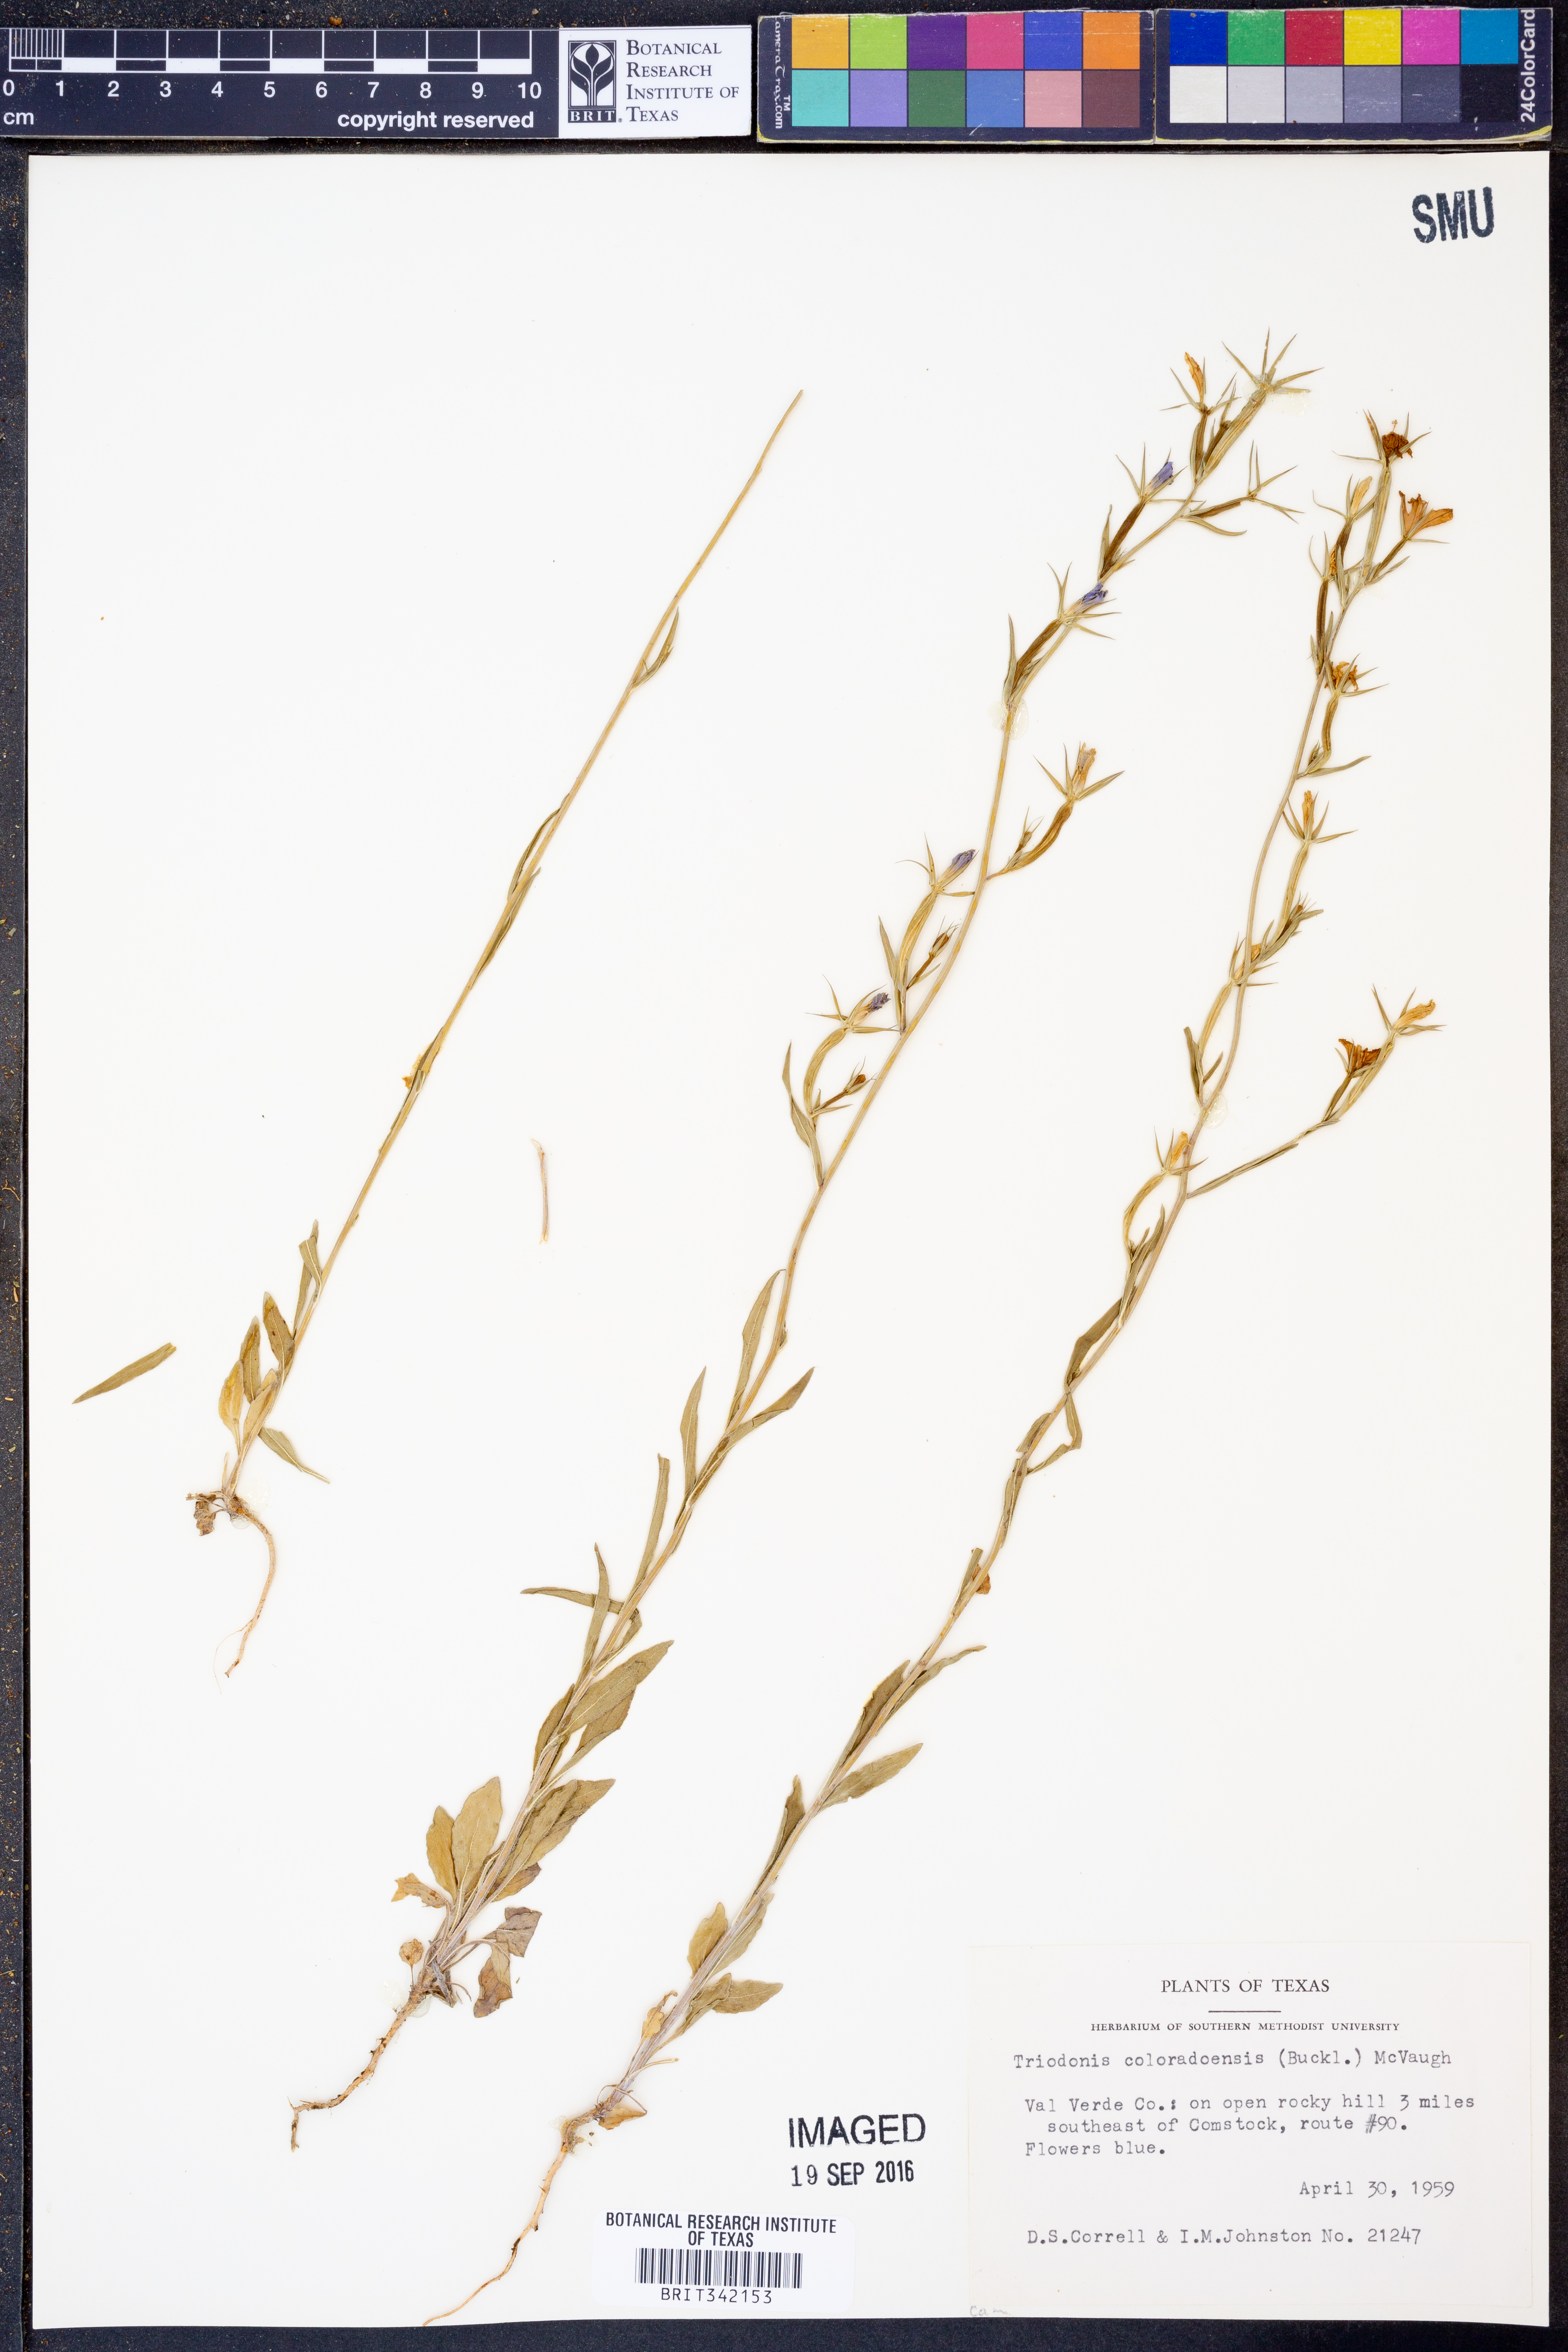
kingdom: Plantae
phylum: Tracheophyta
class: Magnoliopsida
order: Asterales
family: Campanulaceae
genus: Triodanis
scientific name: Triodanis coloradoensis
